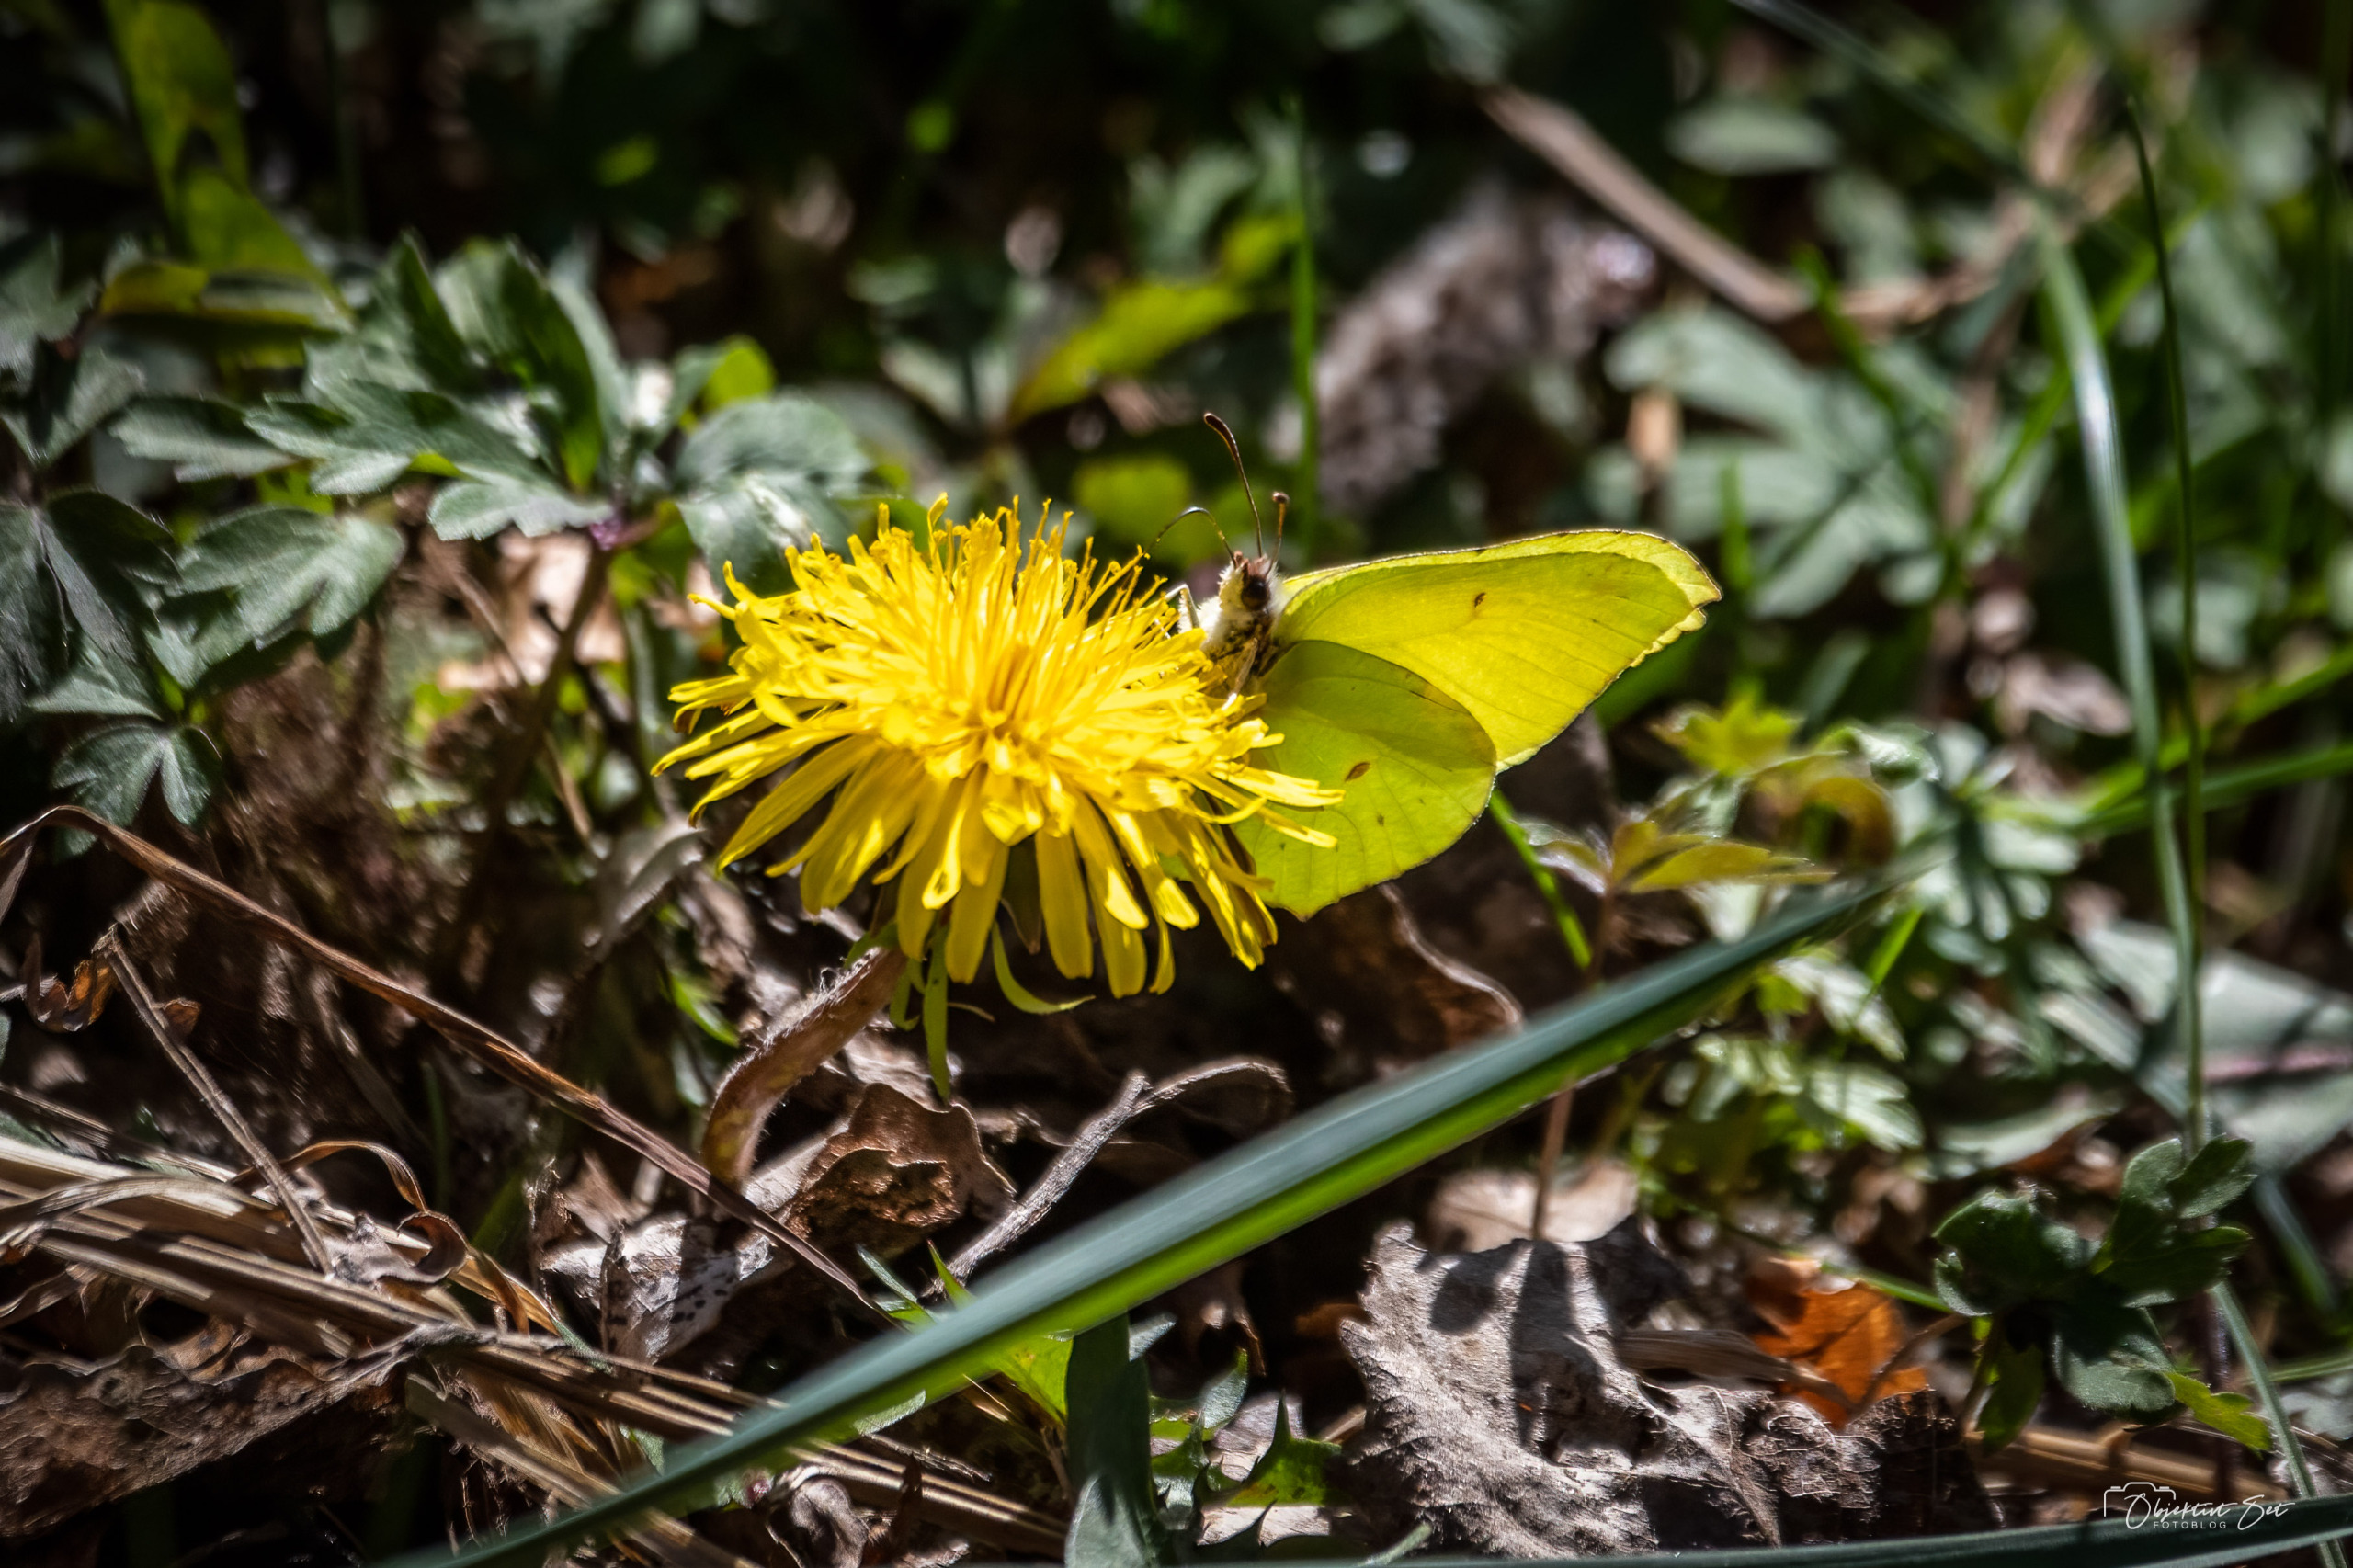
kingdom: Animalia
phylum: Arthropoda
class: Insecta
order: Lepidoptera
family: Pieridae
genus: Gonepteryx
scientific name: Gonepteryx rhamni
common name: Citronsommerfugl
